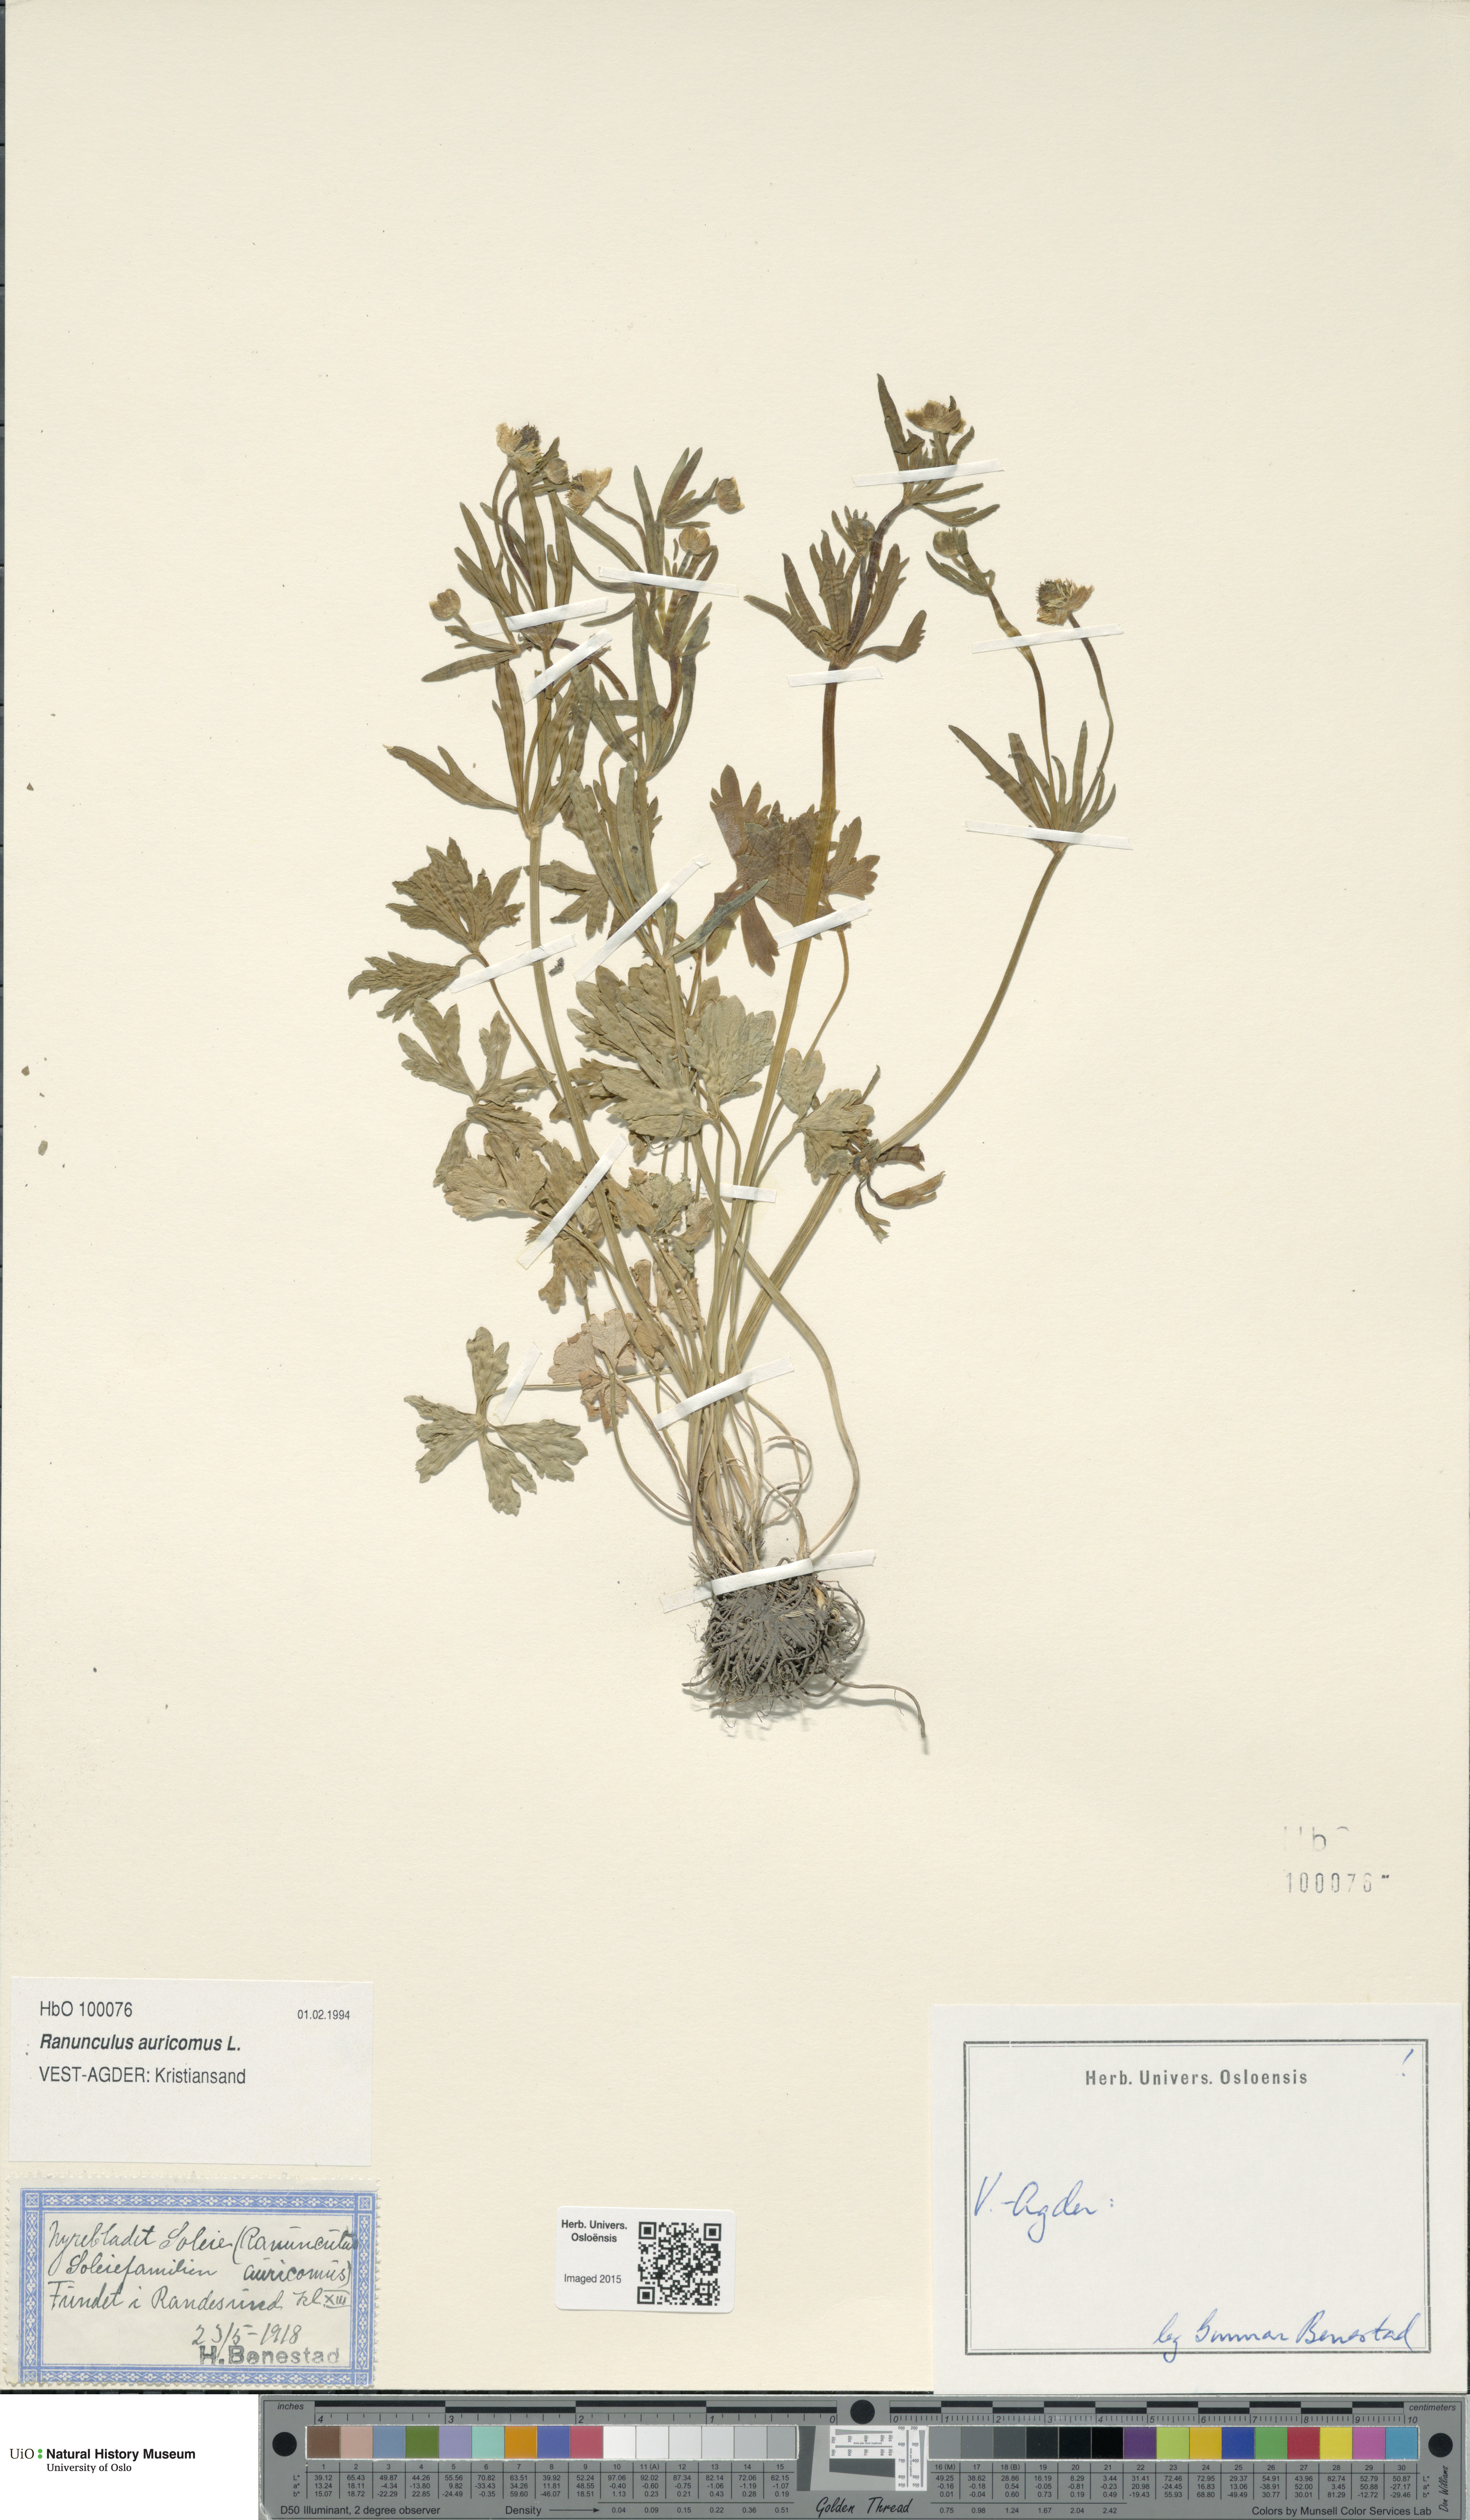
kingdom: Plantae
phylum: Tracheophyta
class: Magnoliopsida
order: Ranunculales
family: Ranunculaceae
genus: Ranunculus
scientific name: Ranunculus auricomus
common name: Goldilocks buttercup
